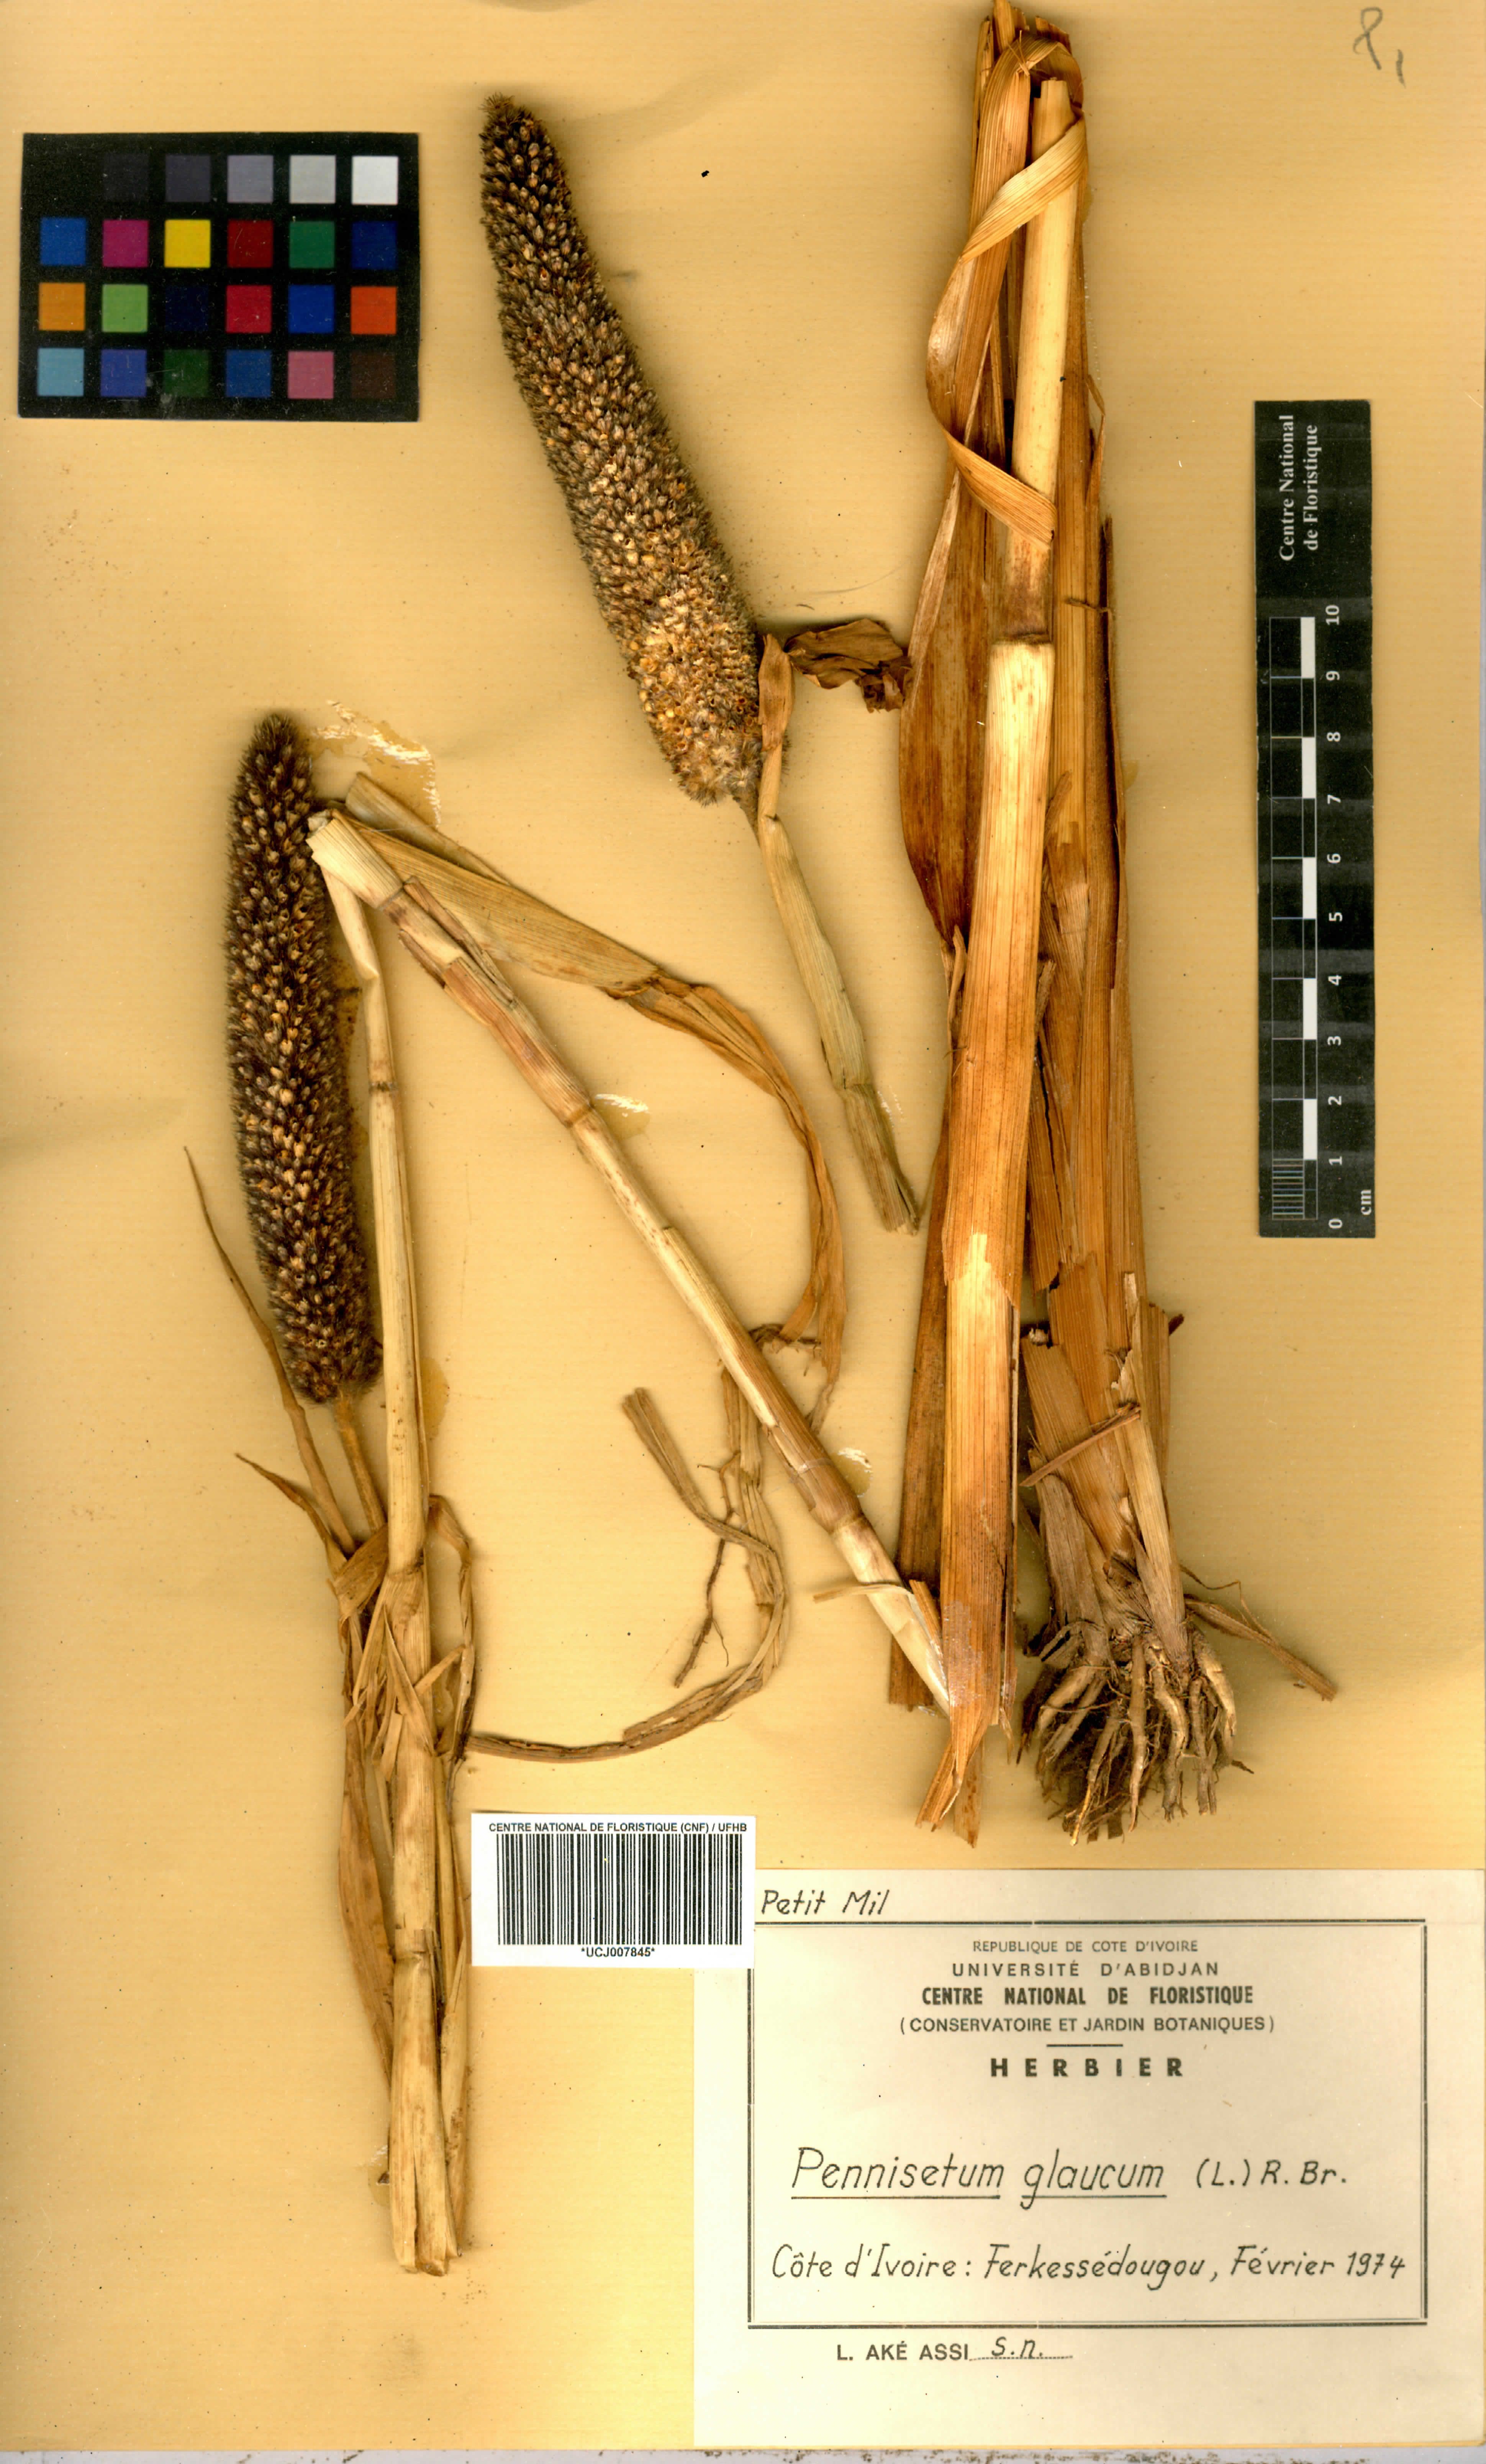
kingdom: Plantae
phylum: Tracheophyta
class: Liliopsida
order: Poales
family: Poaceae
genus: Cenchrus
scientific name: Cenchrus americanus
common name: Pearl millet
